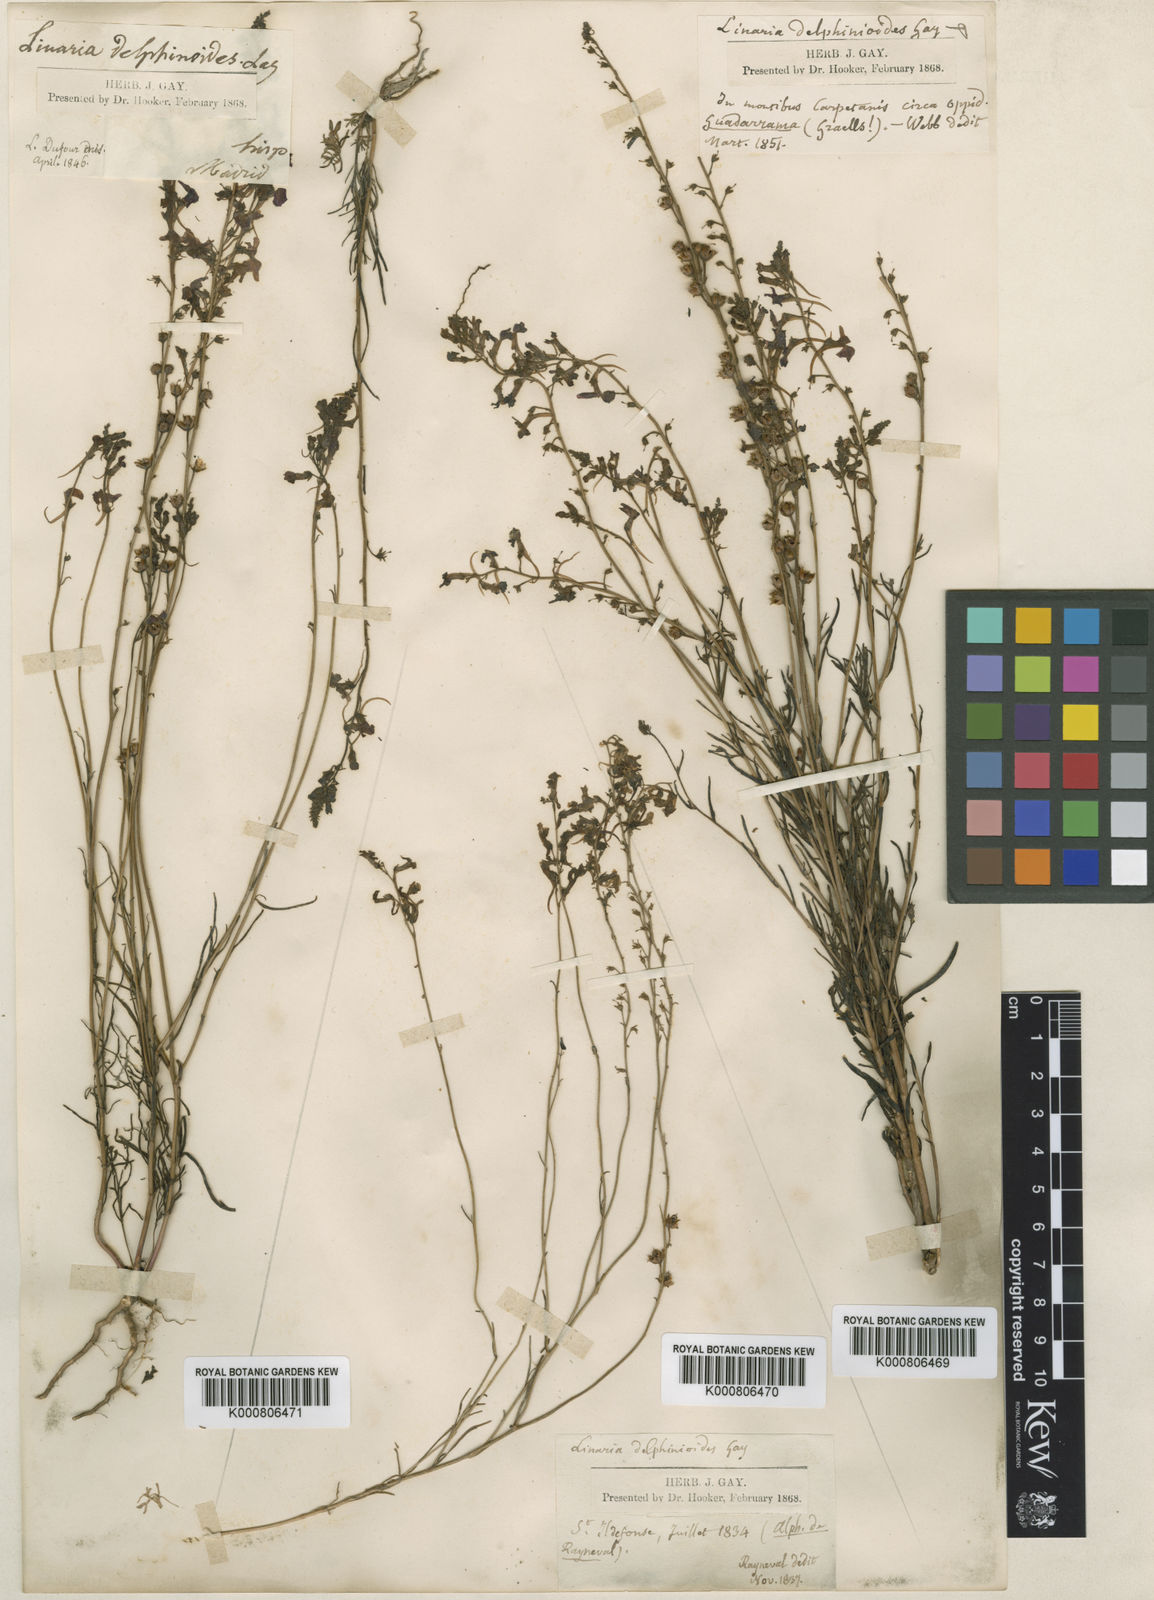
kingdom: Plantae
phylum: Tracheophyta
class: Magnoliopsida
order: Lamiales
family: Plantaginaceae
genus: Linaria
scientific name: Linaria elegans
